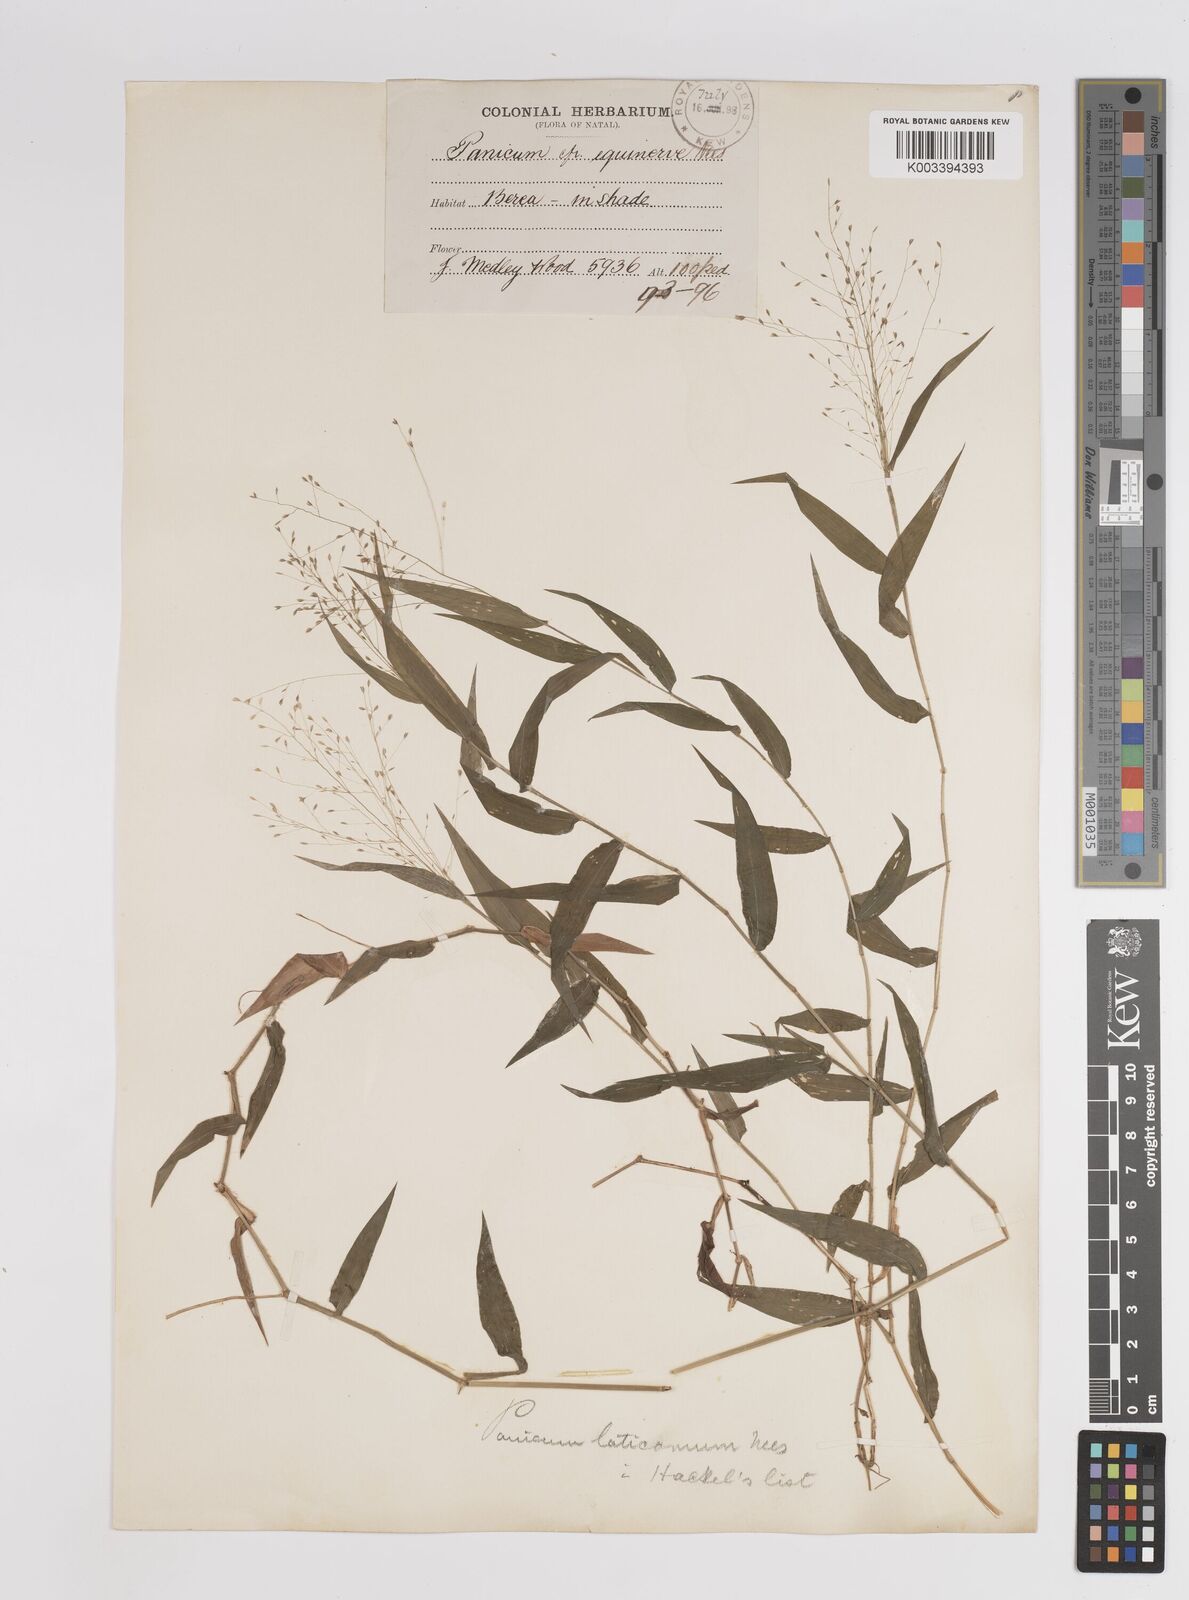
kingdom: Plantae
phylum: Tracheophyta
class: Liliopsida
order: Poales
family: Poaceae
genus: Panicum
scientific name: Panicum laticomum
